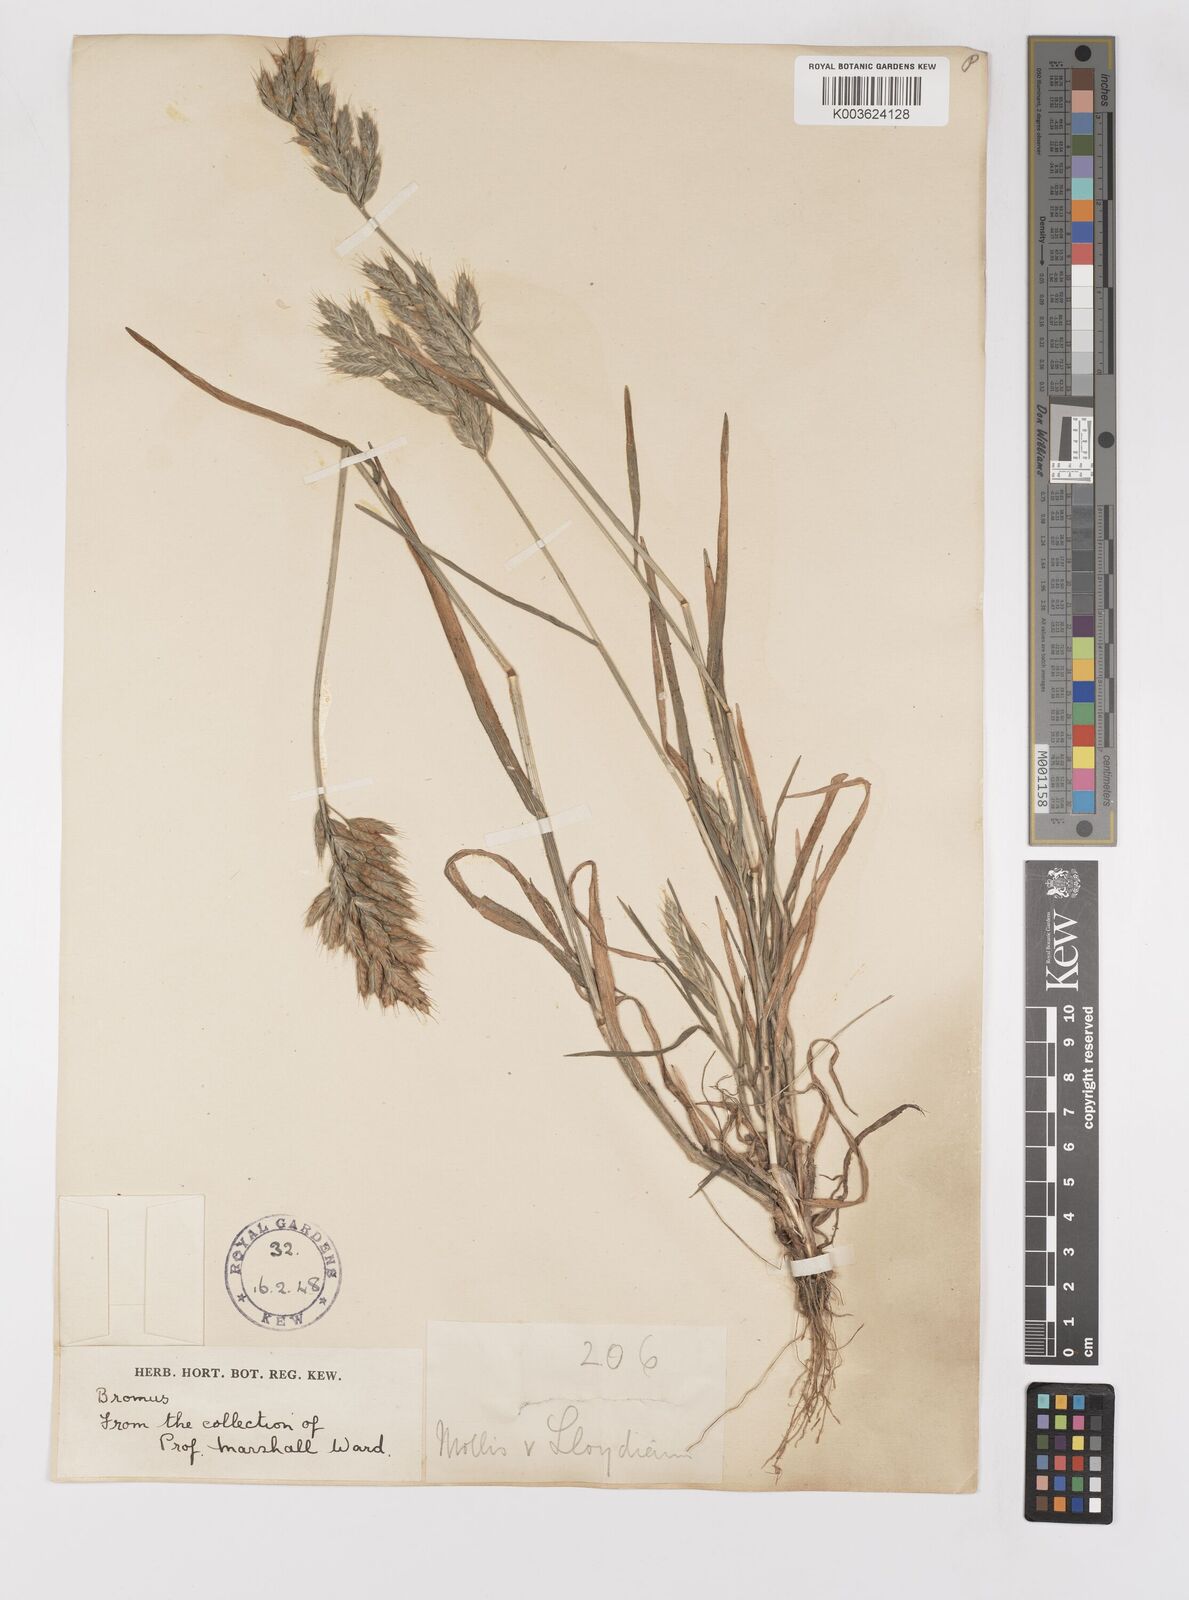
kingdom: Plantae
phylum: Tracheophyta
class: Liliopsida
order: Poales
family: Poaceae
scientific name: Poaceae
